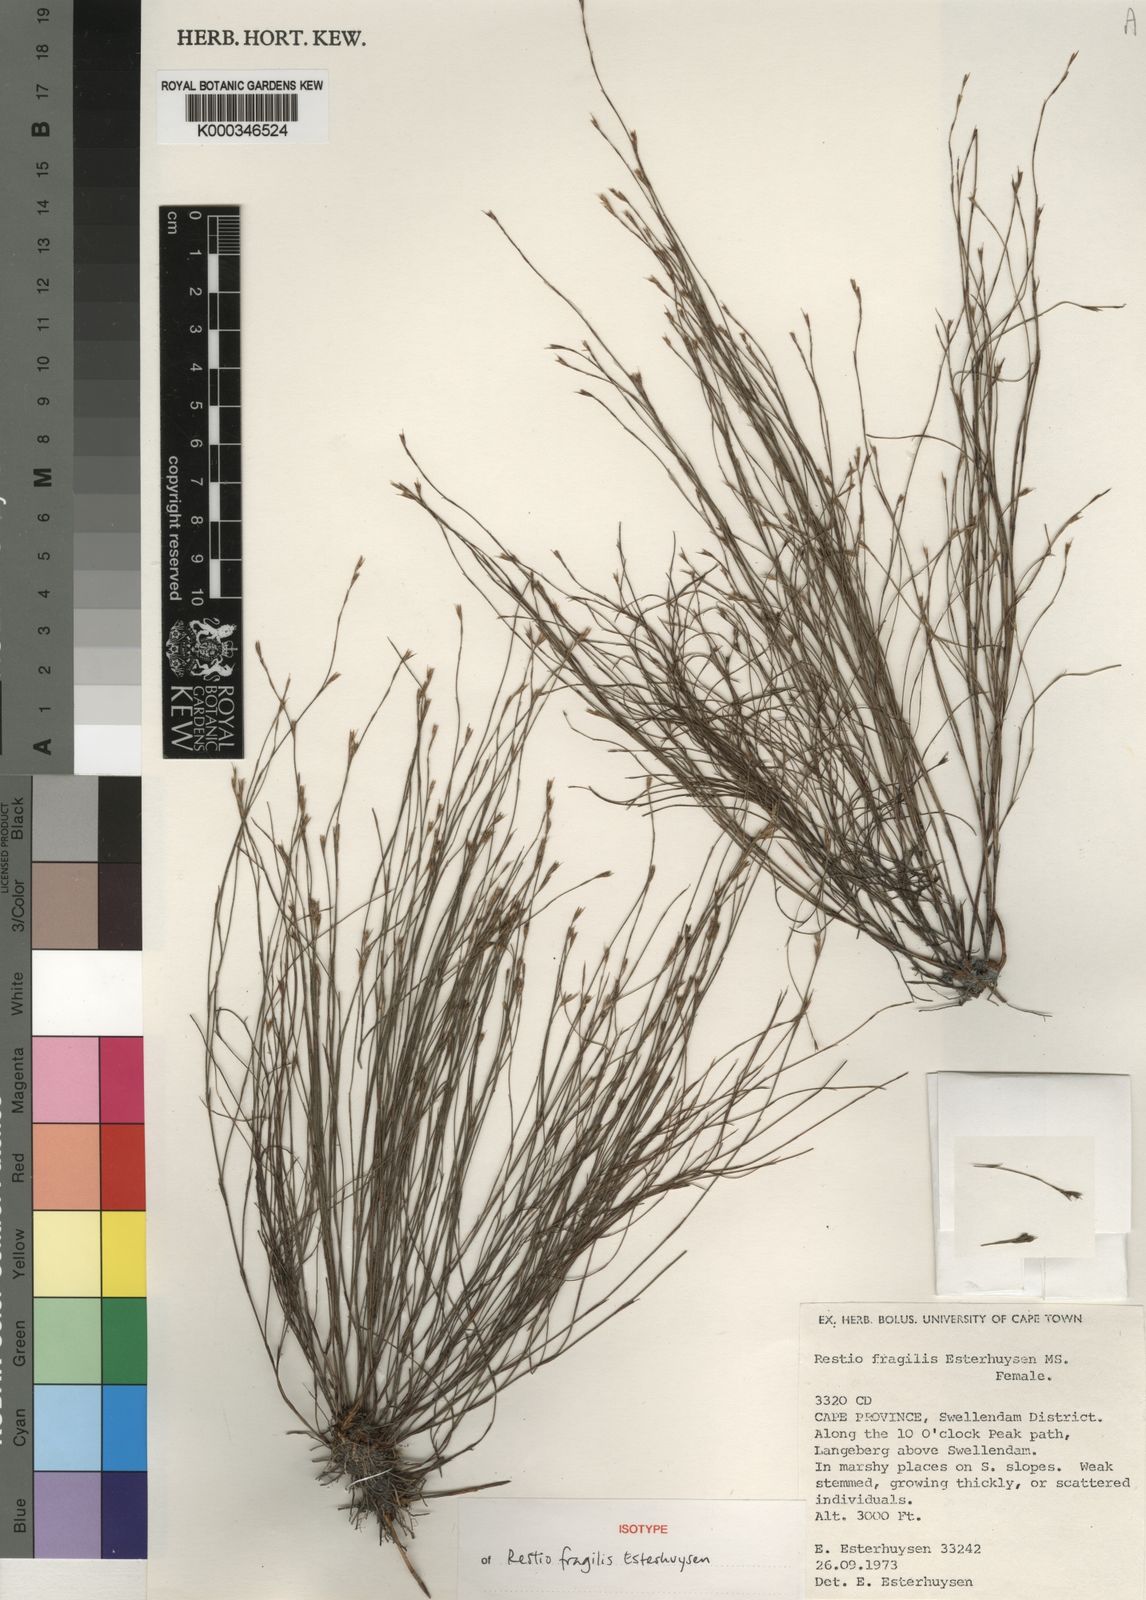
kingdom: Plantae
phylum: Tracheophyta
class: Liliopsida
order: Poales
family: Restionaceae
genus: Restio
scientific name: Restio fragilis
